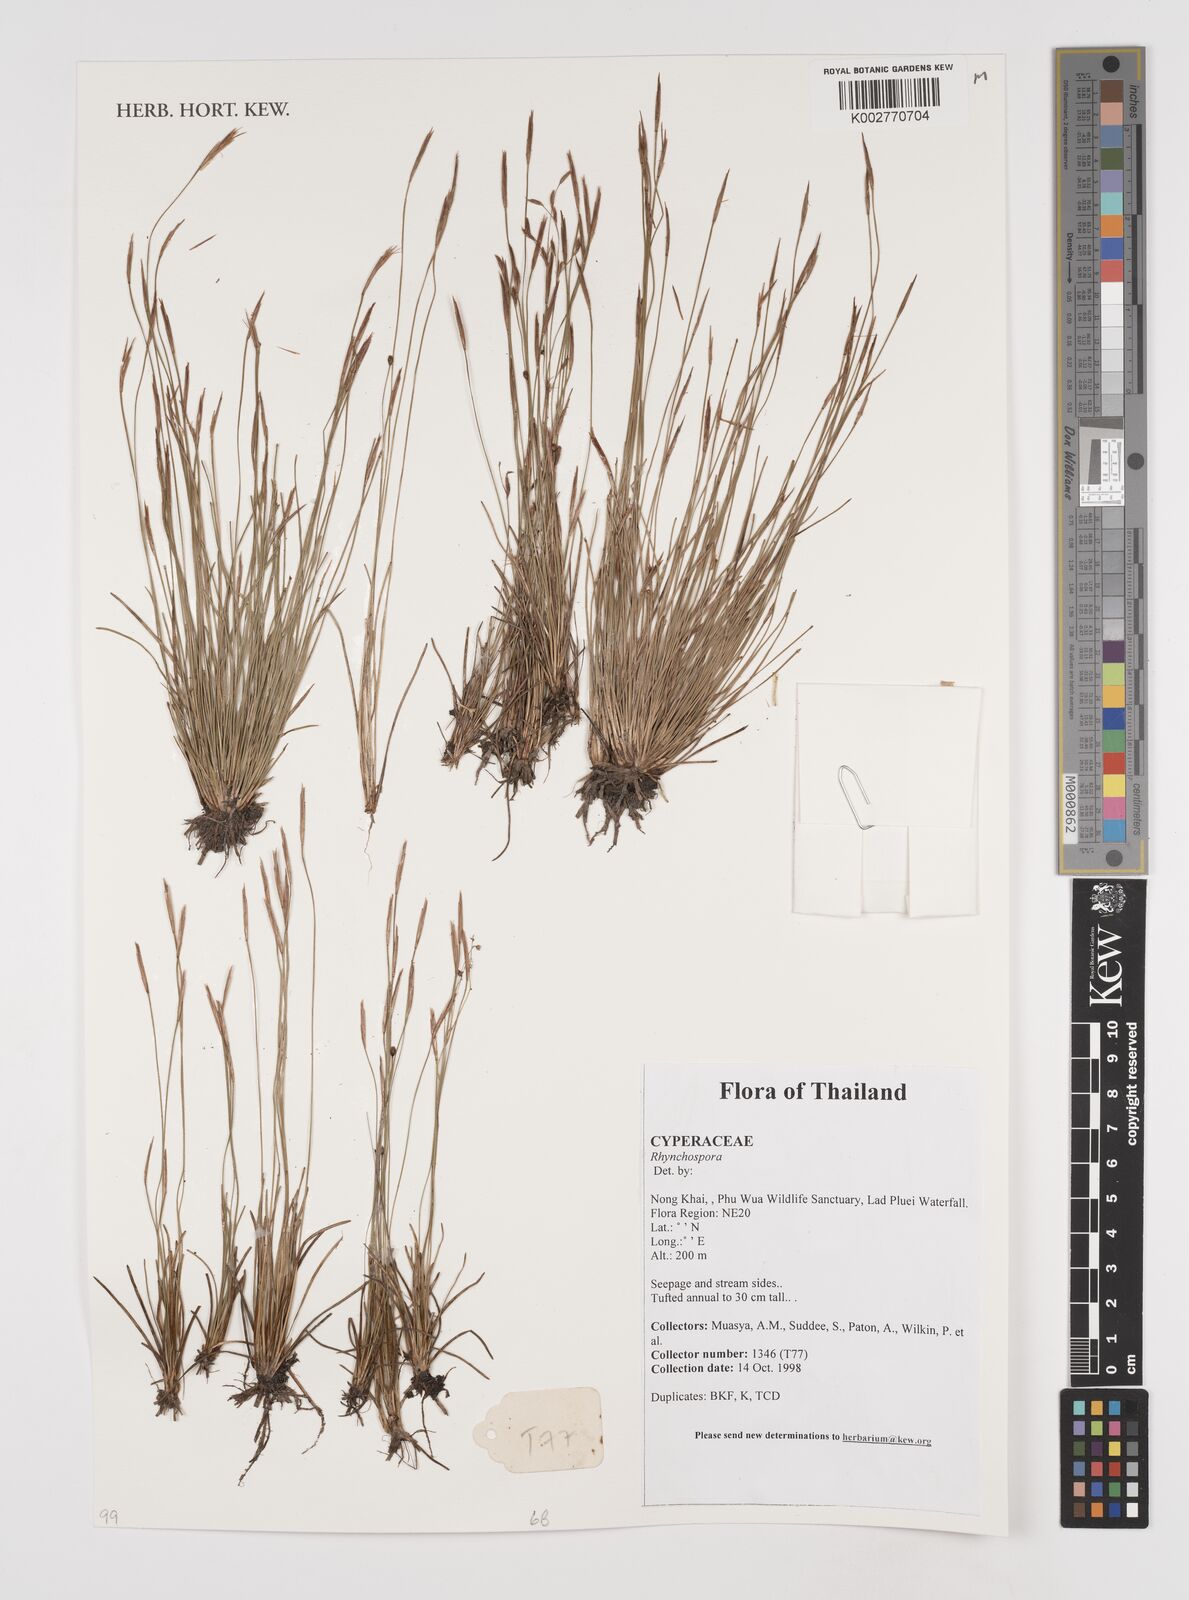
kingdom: Plantae
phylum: Tracheophyta
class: Liliopsida
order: Poales
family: Cyperaceae
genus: Rhynchospora
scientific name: Rhynchospora
